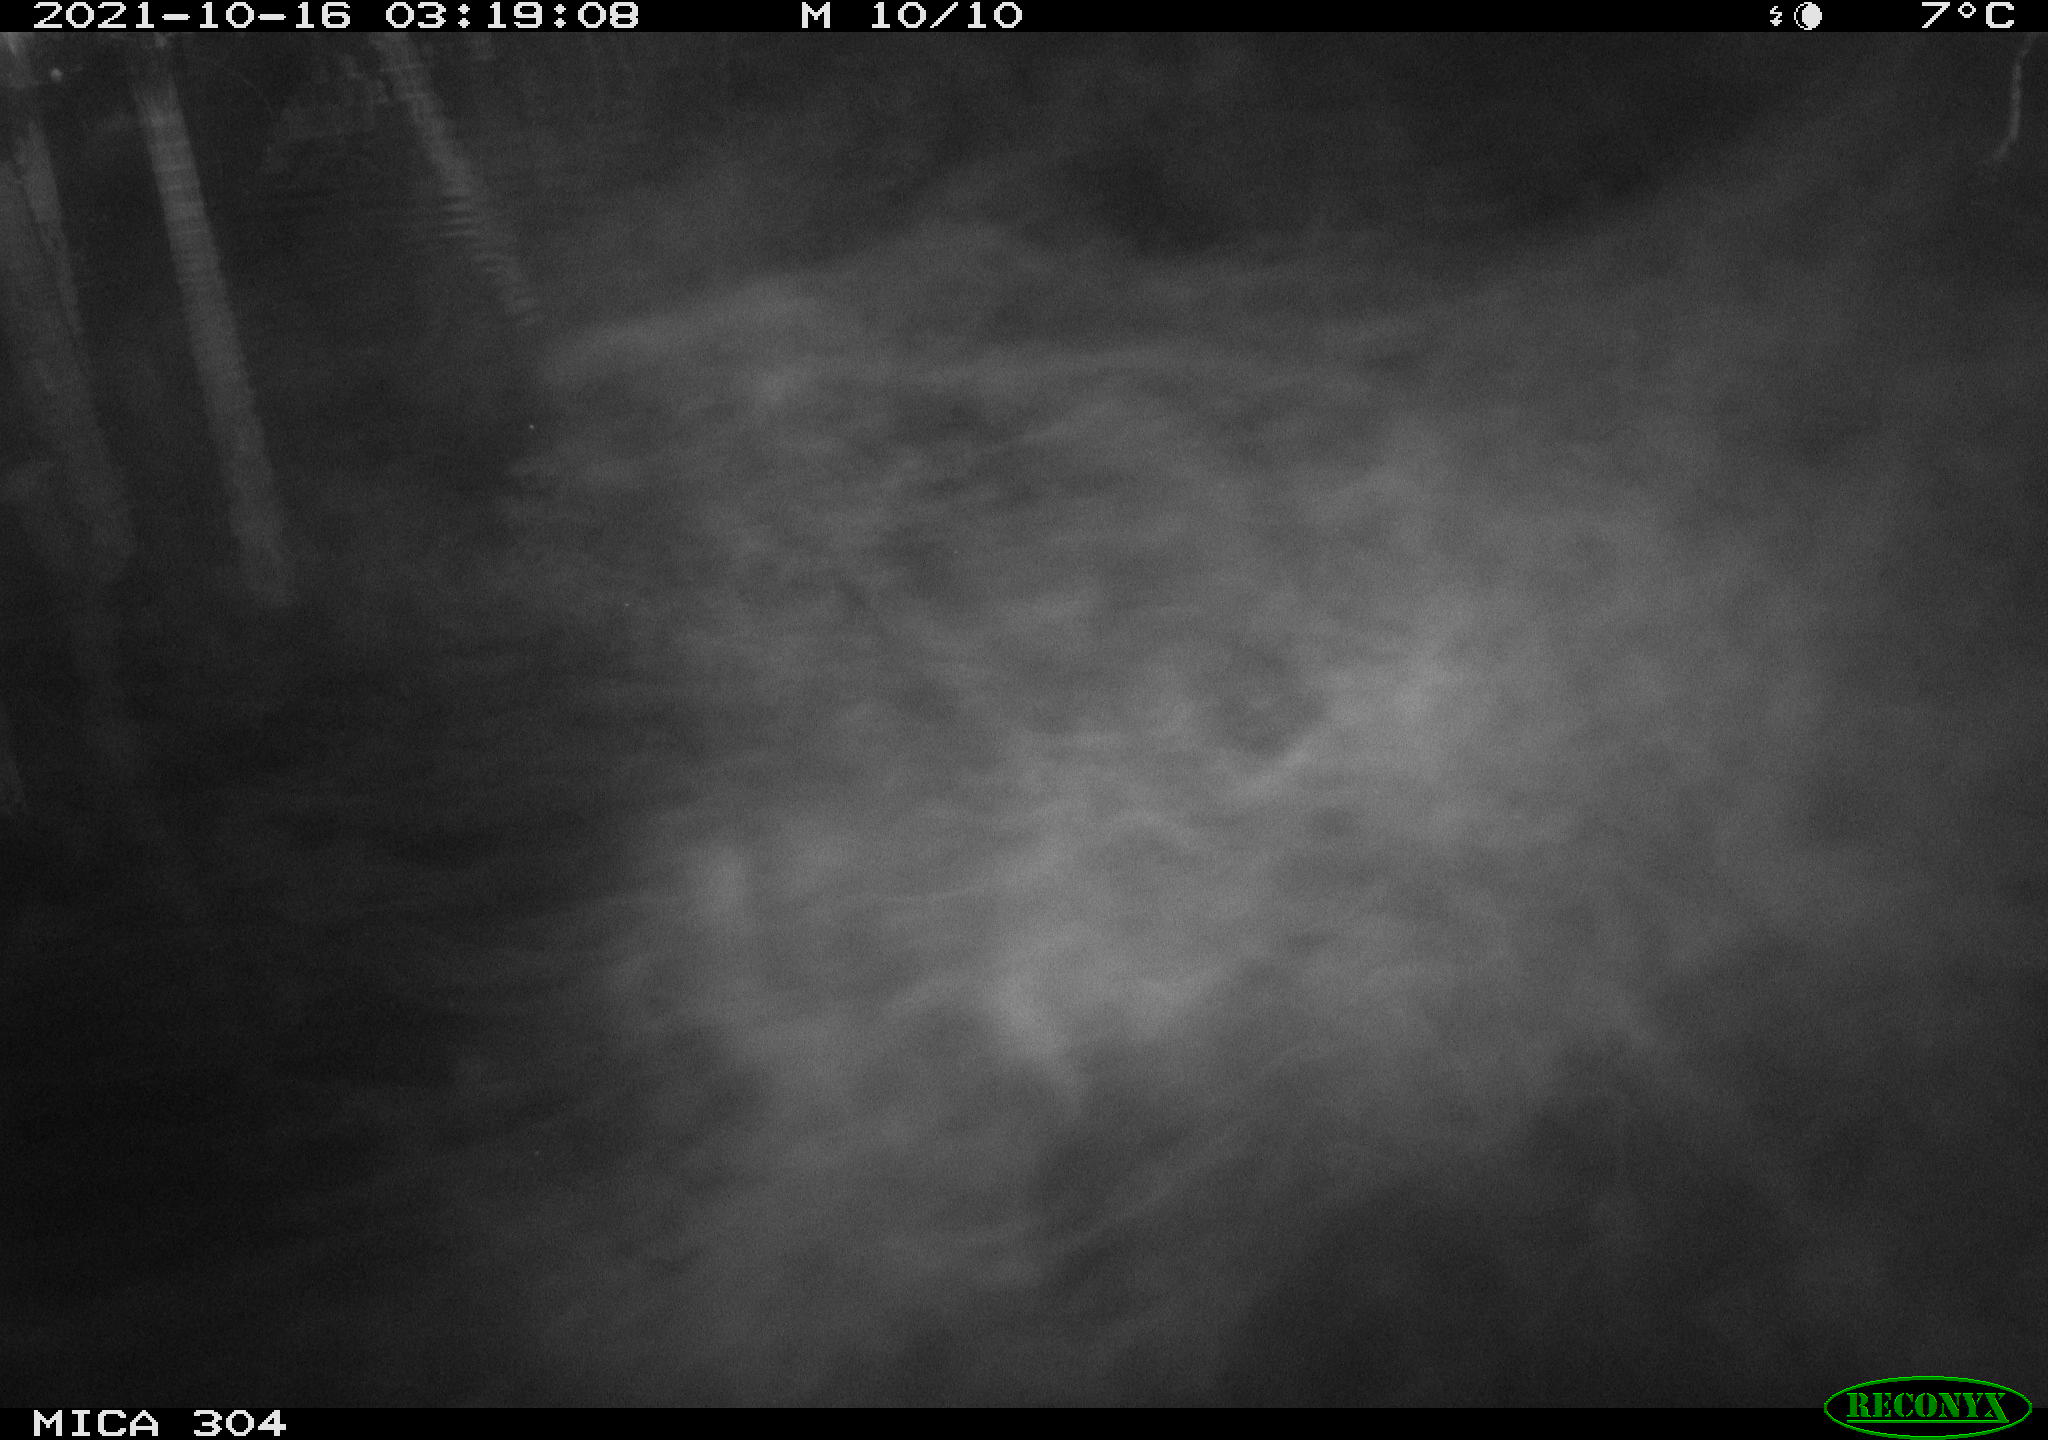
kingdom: Animalia
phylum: Chordata
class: Mammalia
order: Rodentia
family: Muridae
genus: Rattus
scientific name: Rattus norvegicus
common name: Brown rat
